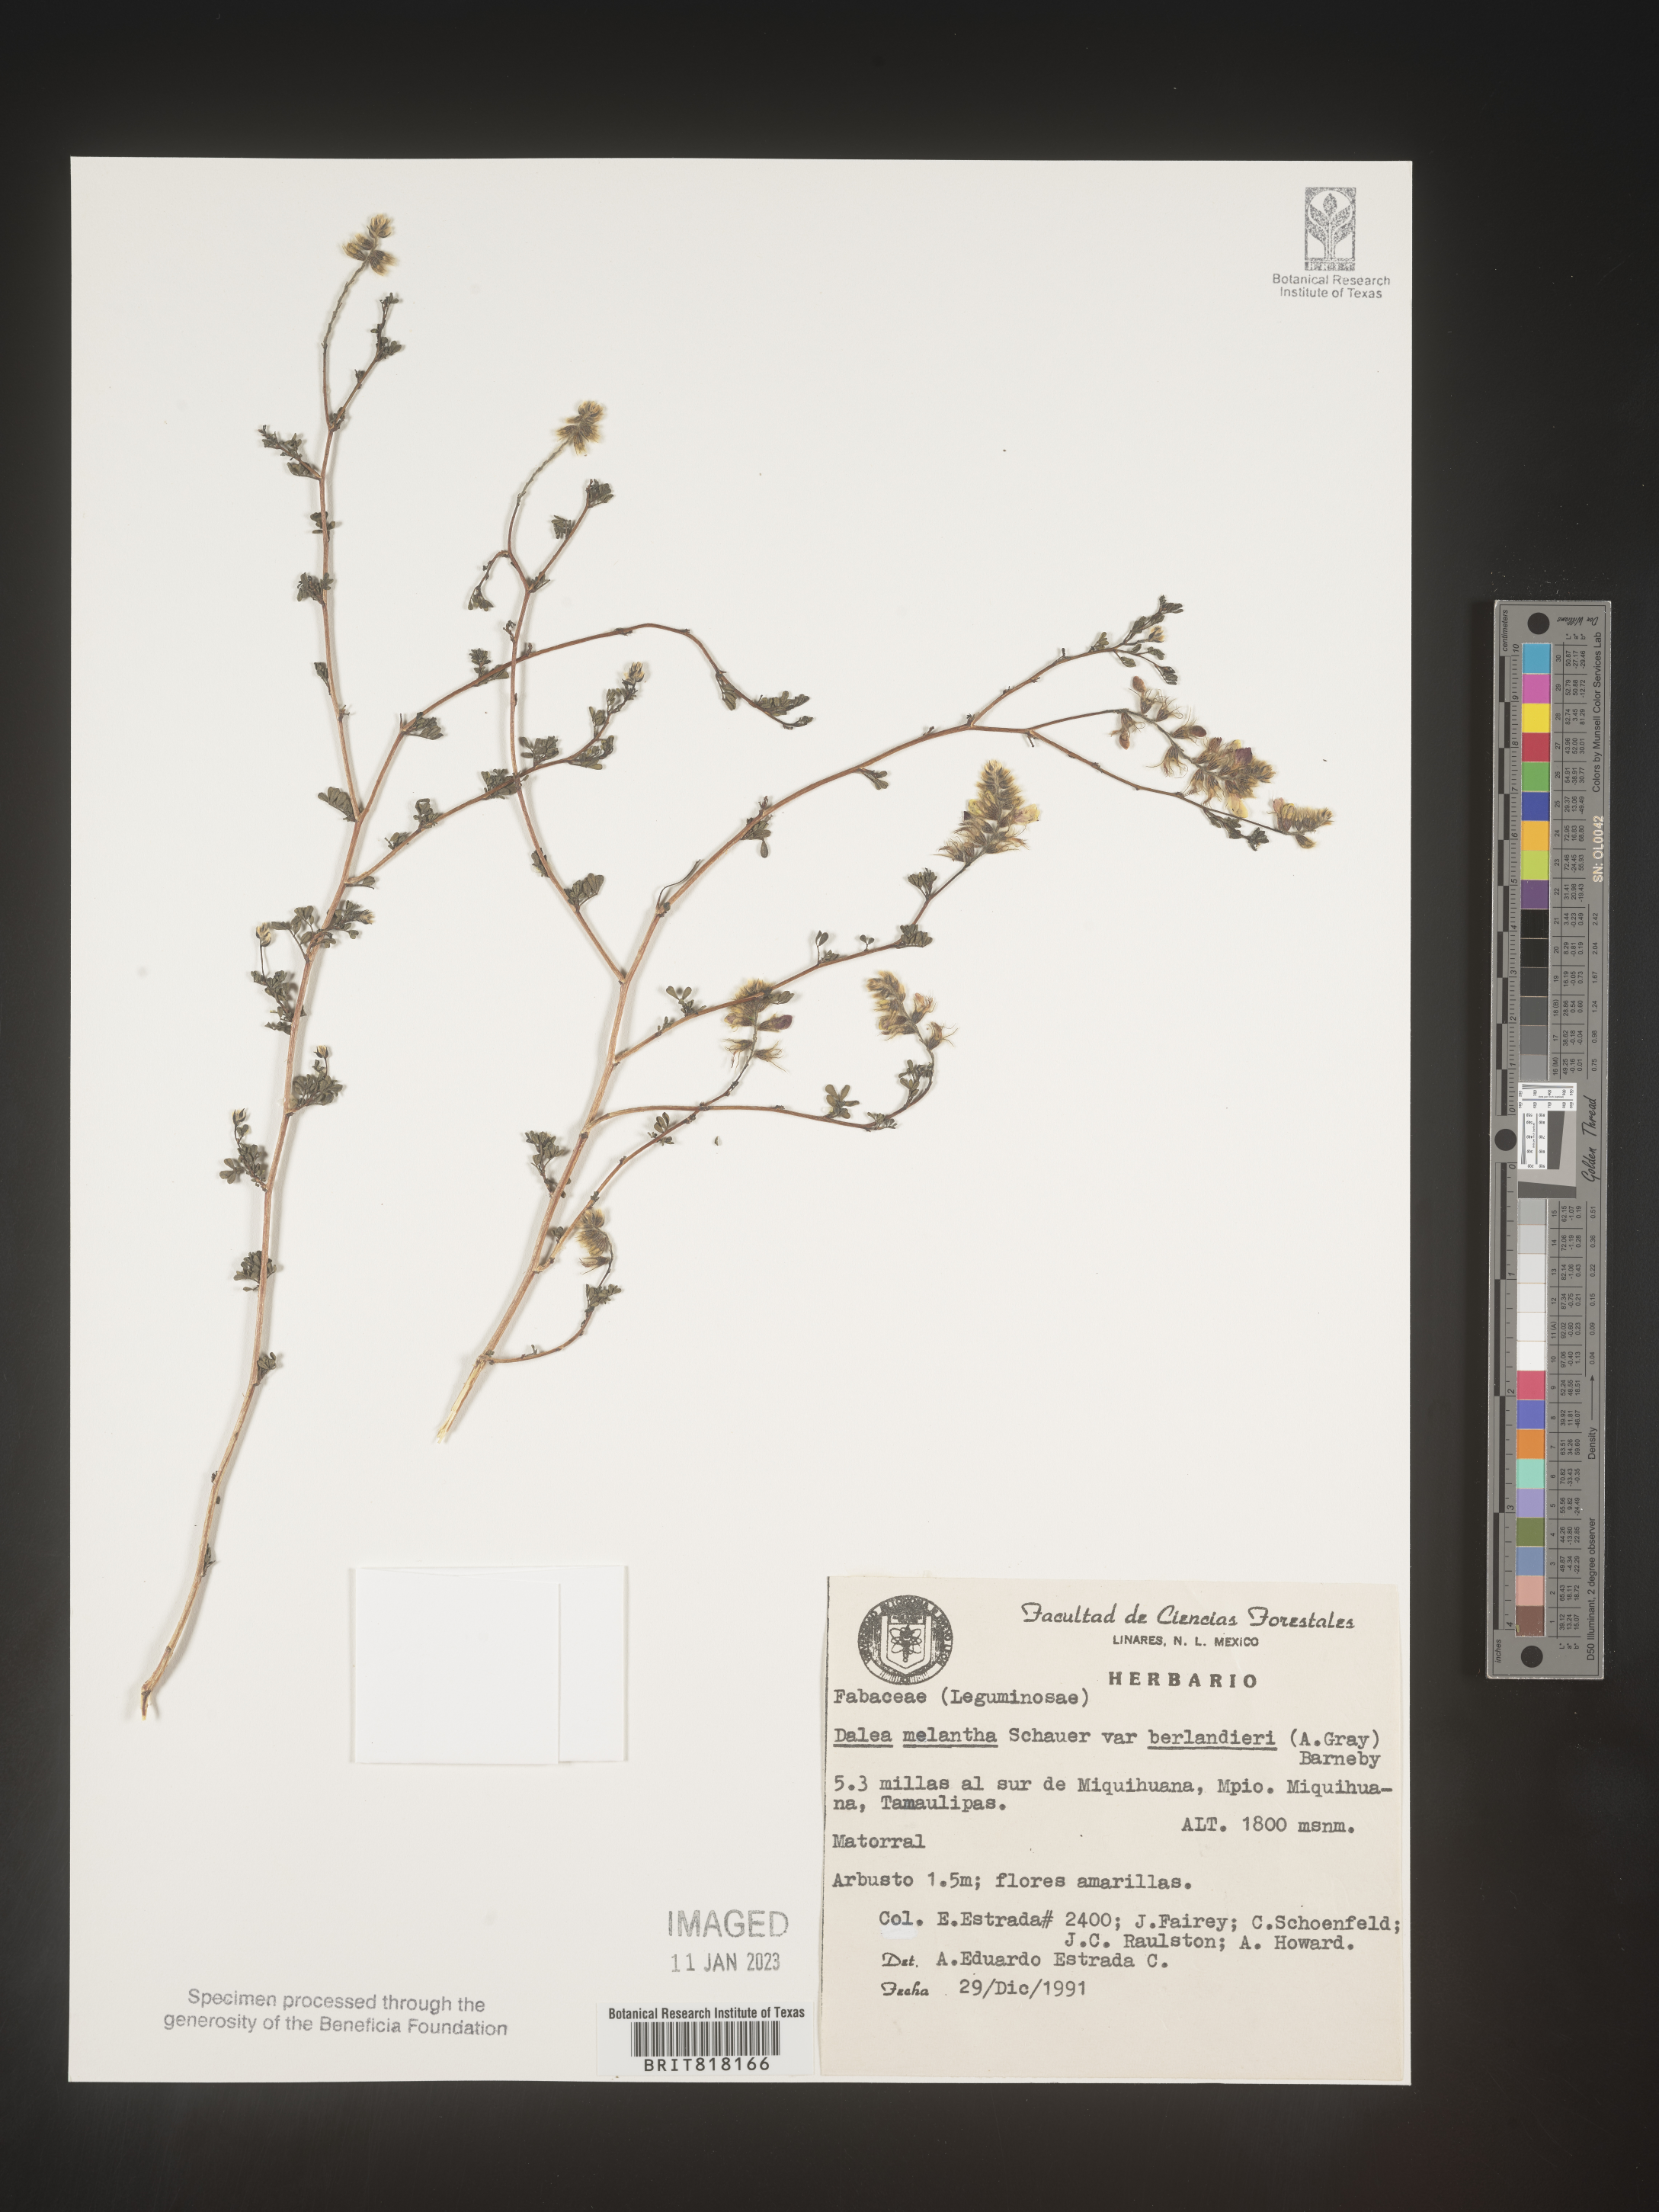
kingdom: Plantae
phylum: Tracheophyta
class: Magnoliopsida
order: Fabales
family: Fabaceae
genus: Dalea
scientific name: Dalea
